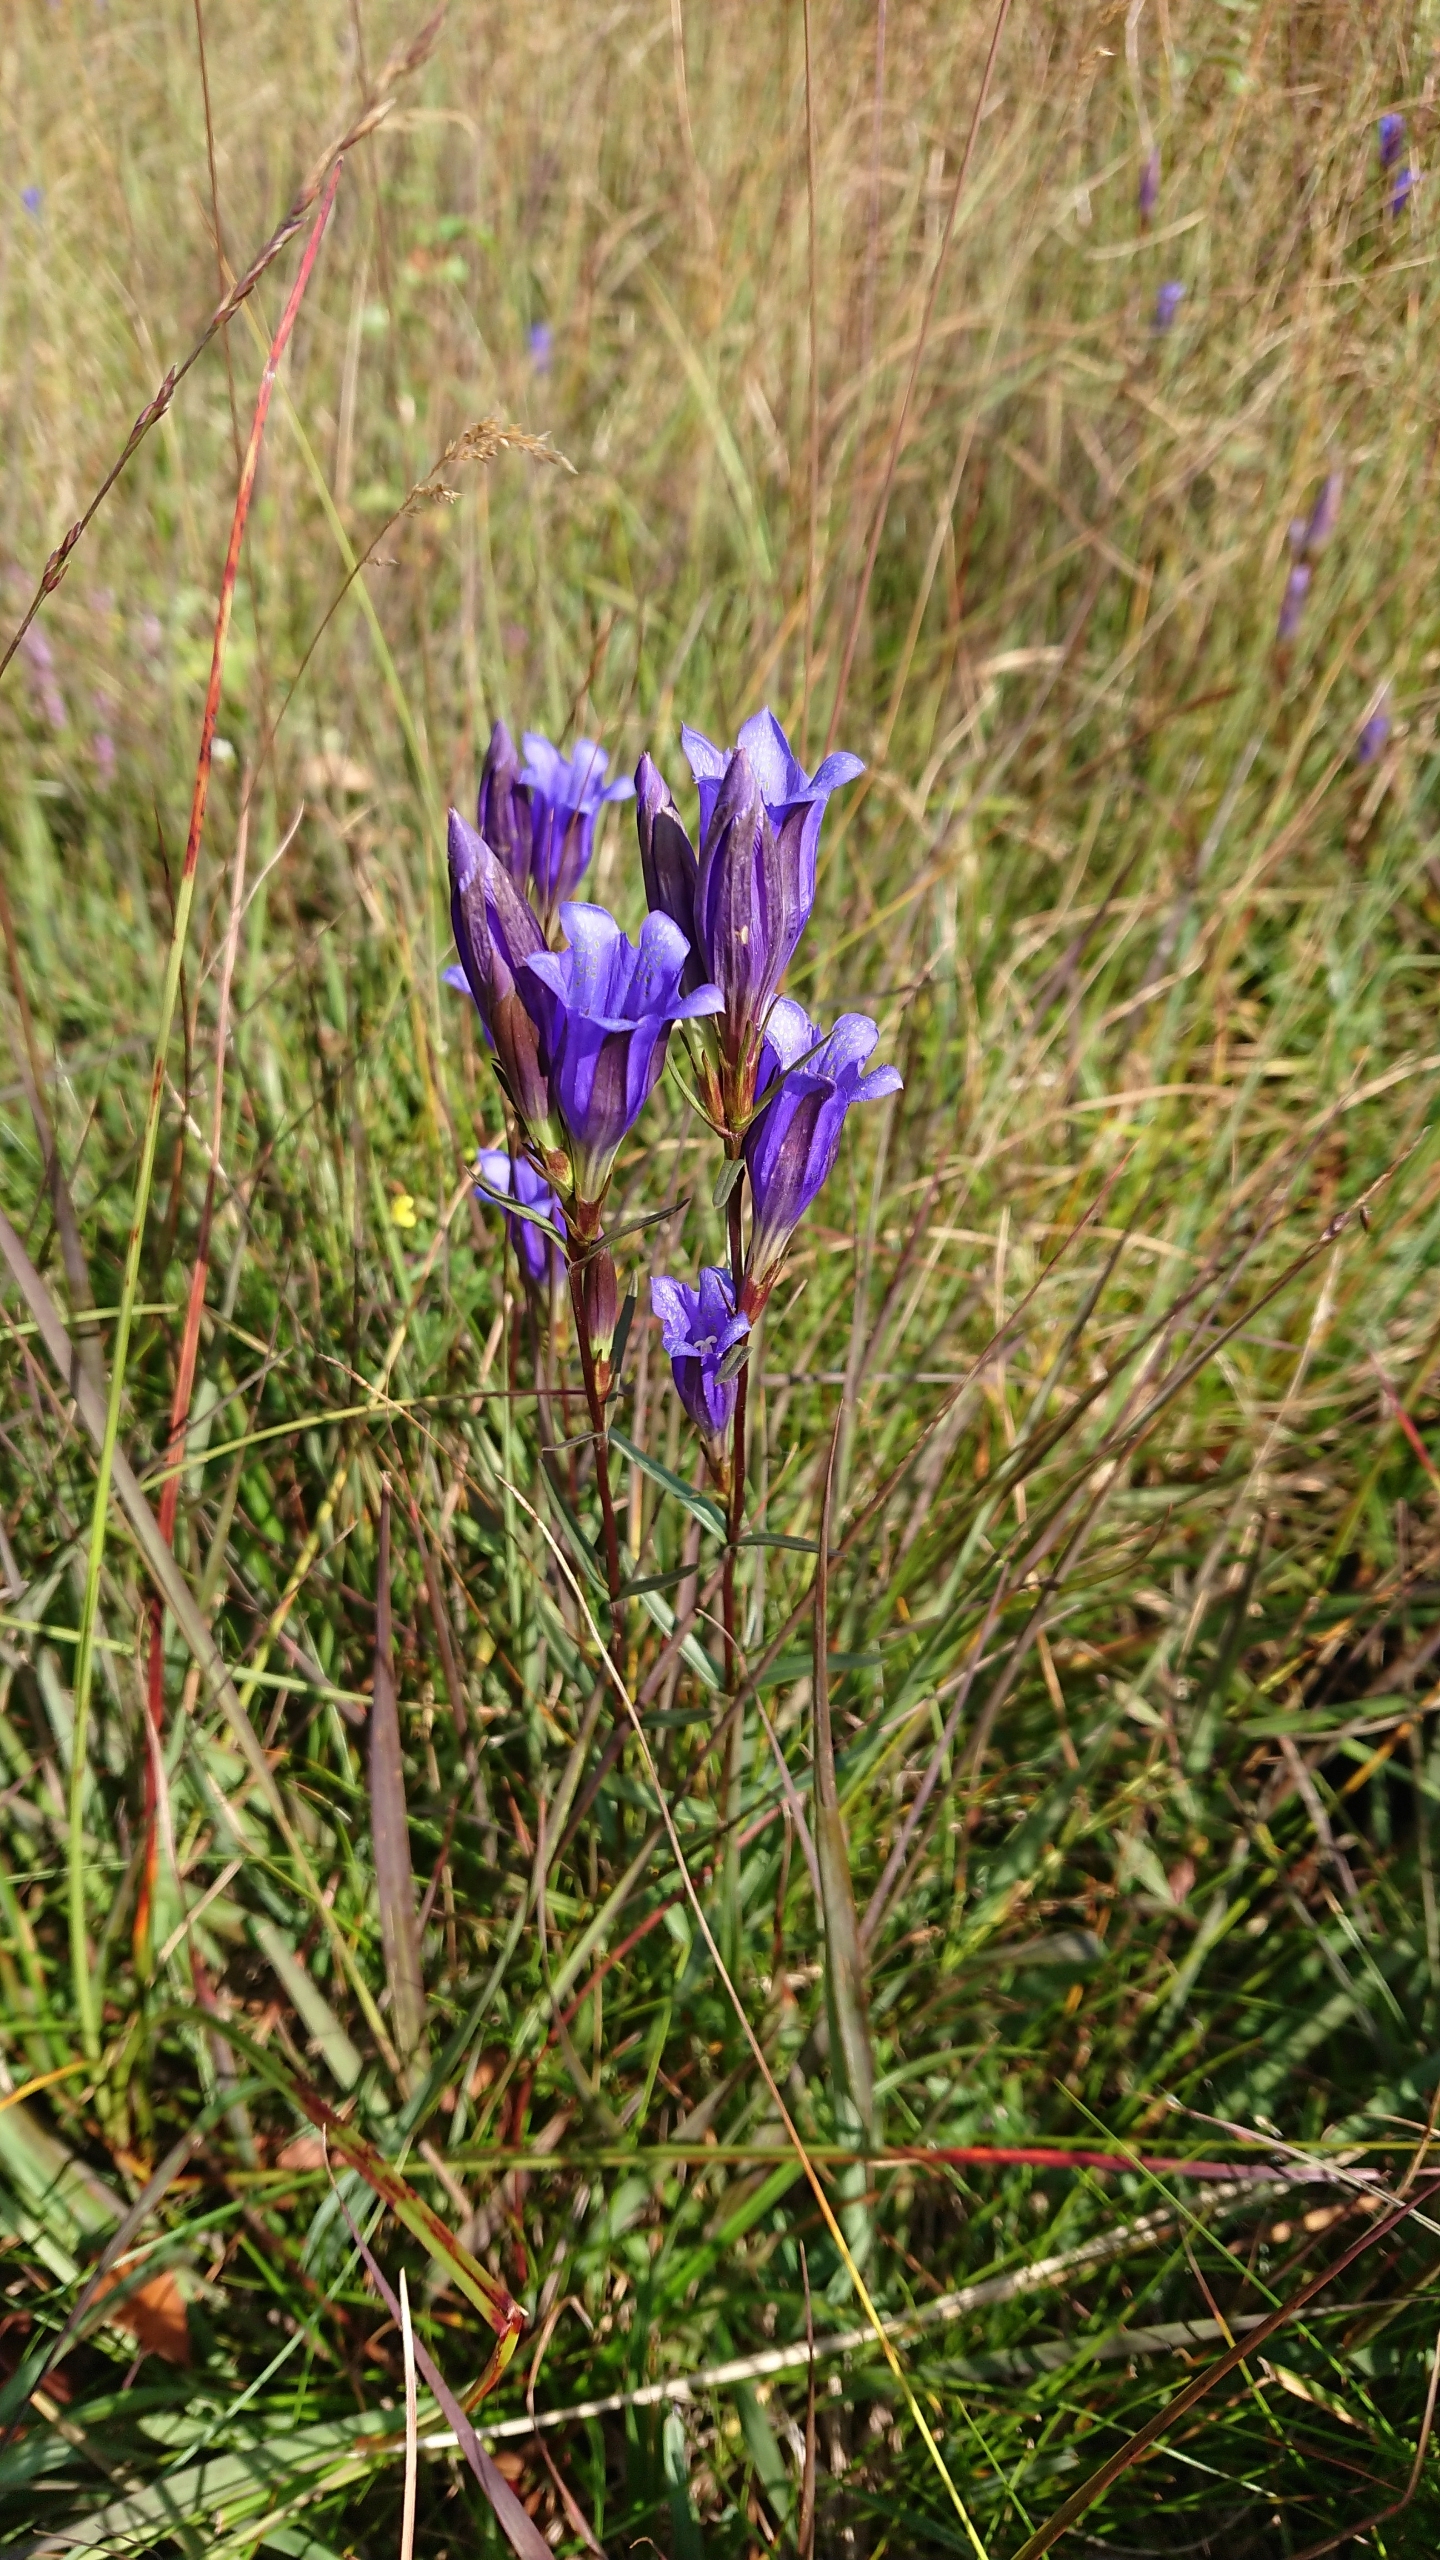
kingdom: Plantae
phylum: Tracheophyta
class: Magnoliopsida
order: Gentianales
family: Gentianaceae
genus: Gentiana
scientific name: Gentiana pneumonanthe
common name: Klokke-ensian
